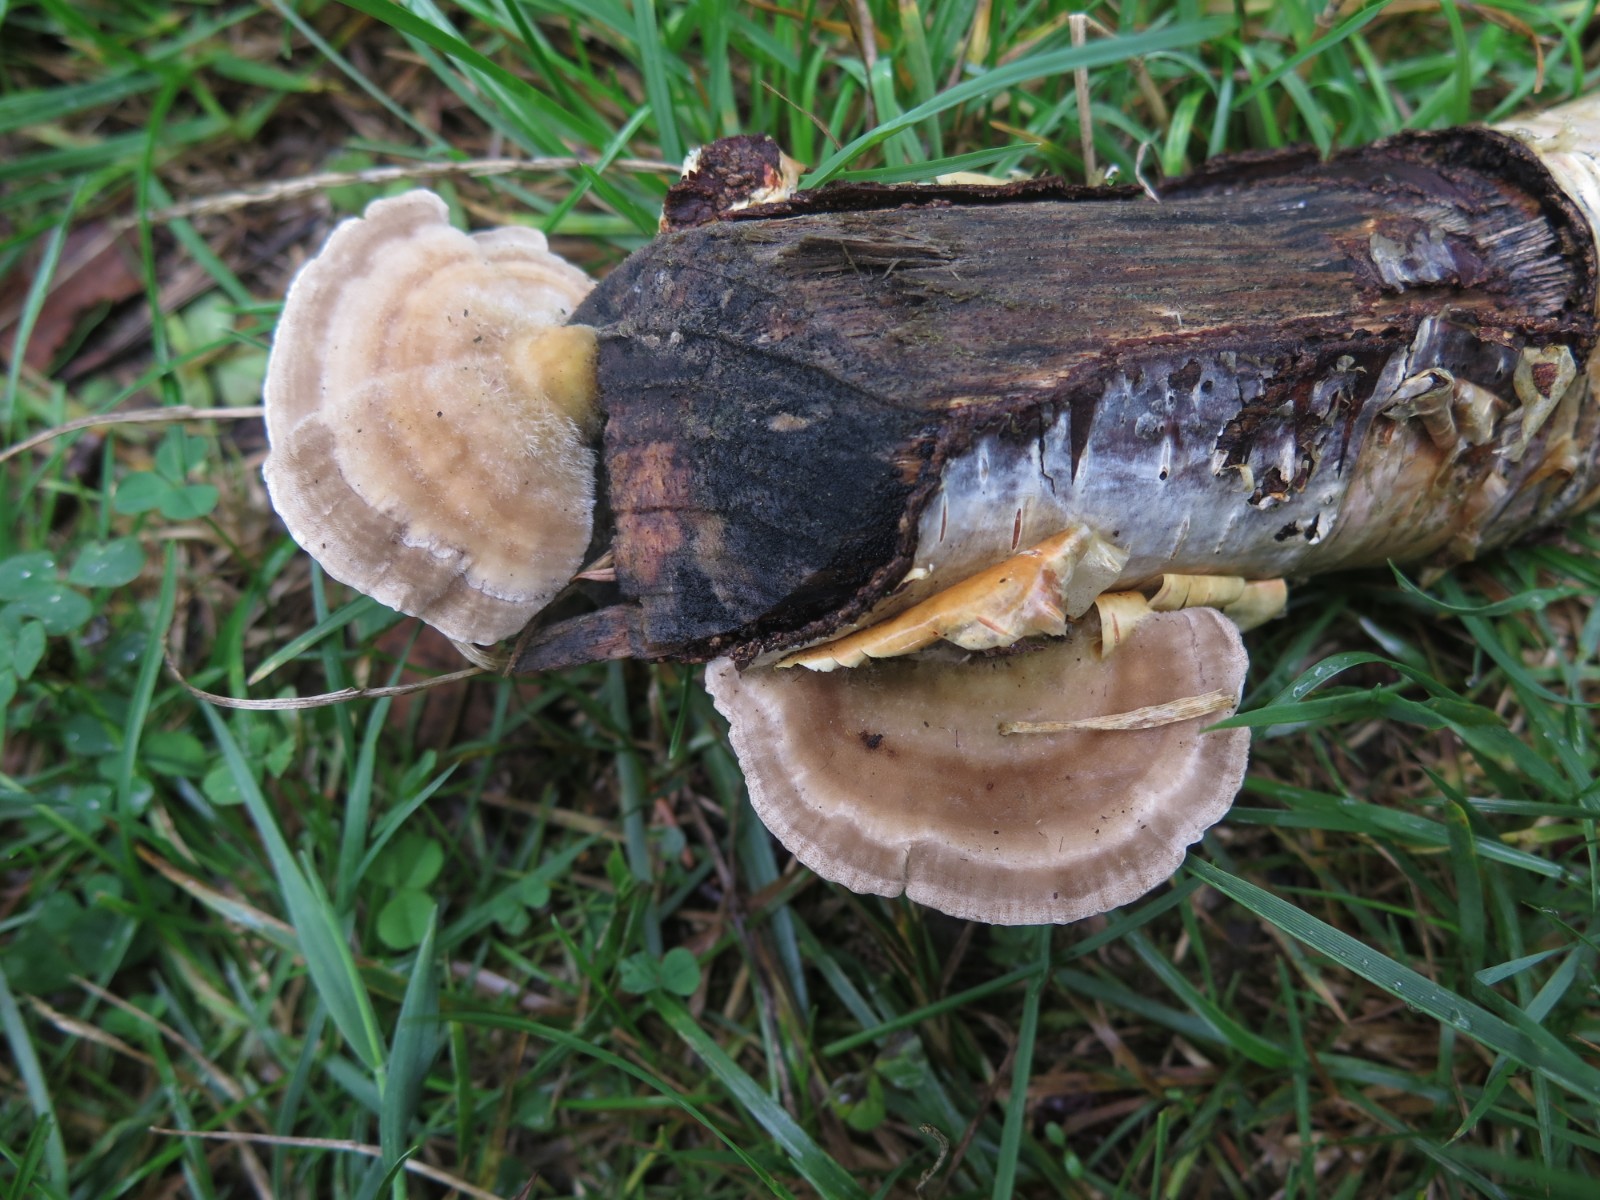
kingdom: Fungi
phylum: Basidiomycota
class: Agaricomycetes
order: Polyporales
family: Polyporaceae
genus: Lenzites
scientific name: Lenzites betulinus
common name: birke-læderporesvamp
